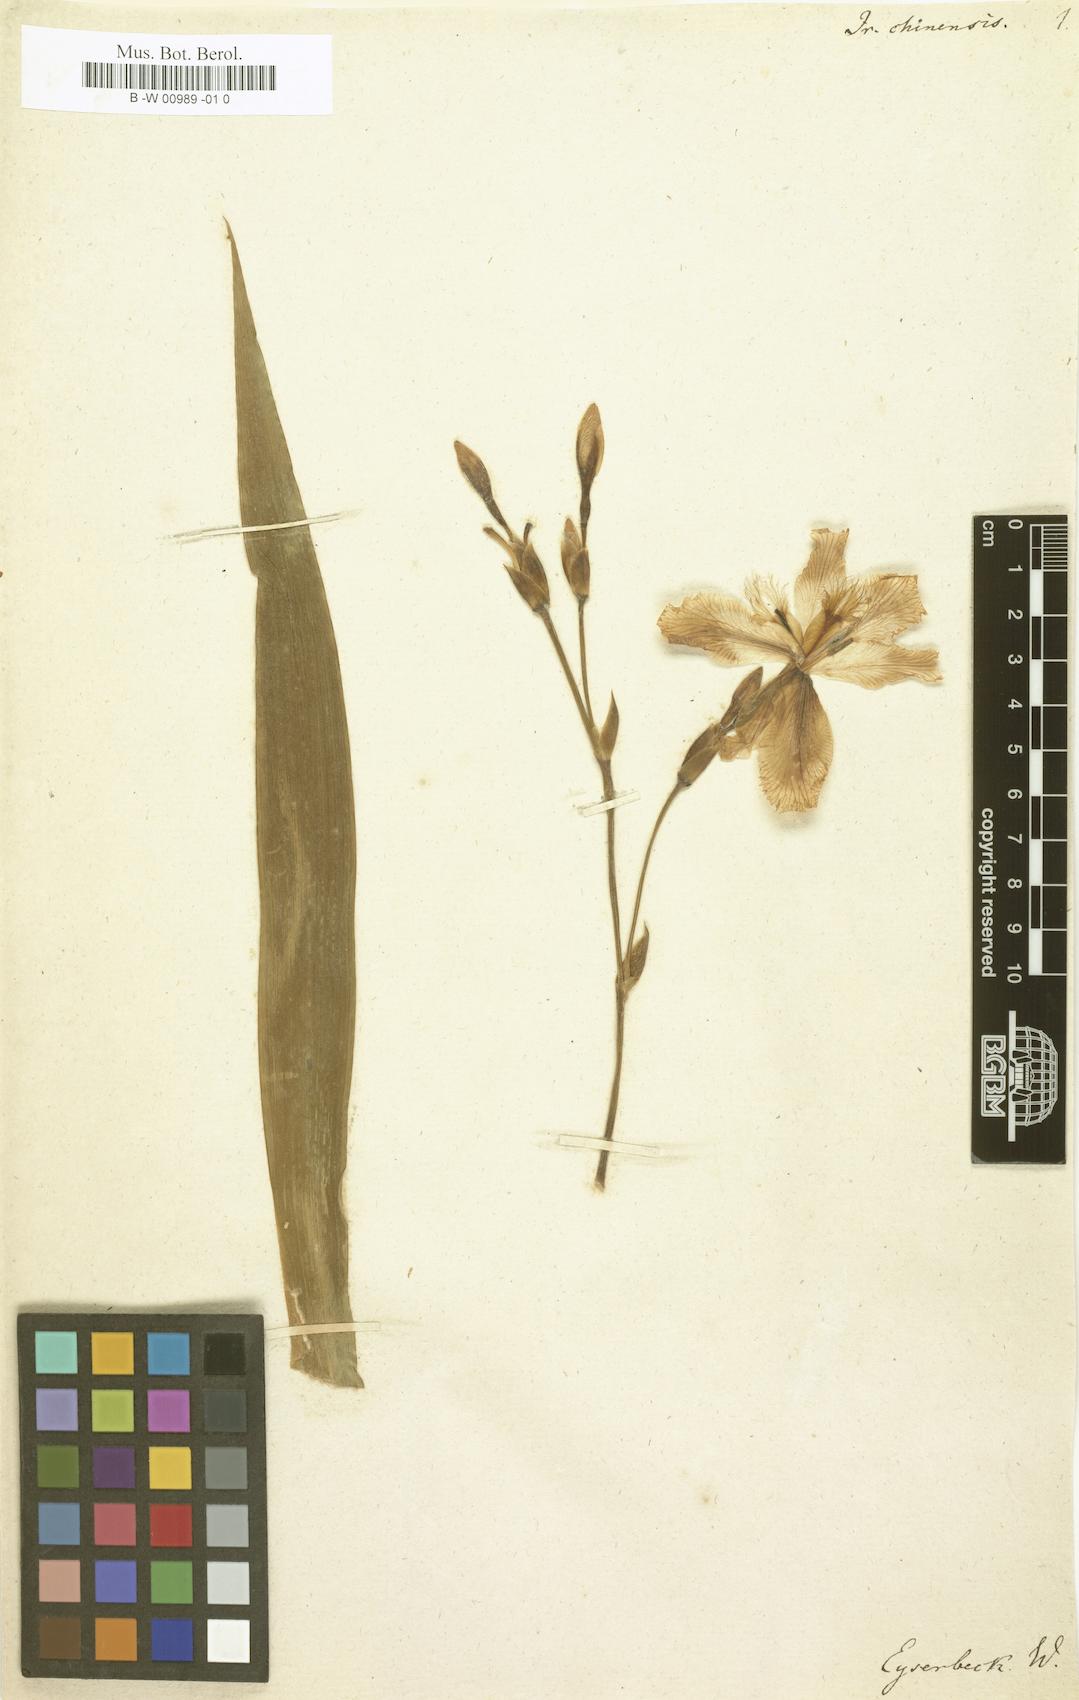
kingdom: Plantae
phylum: Tracheophyta
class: Liliopsida
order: Asparagales
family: Iridaceae
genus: Iris
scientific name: Iris
